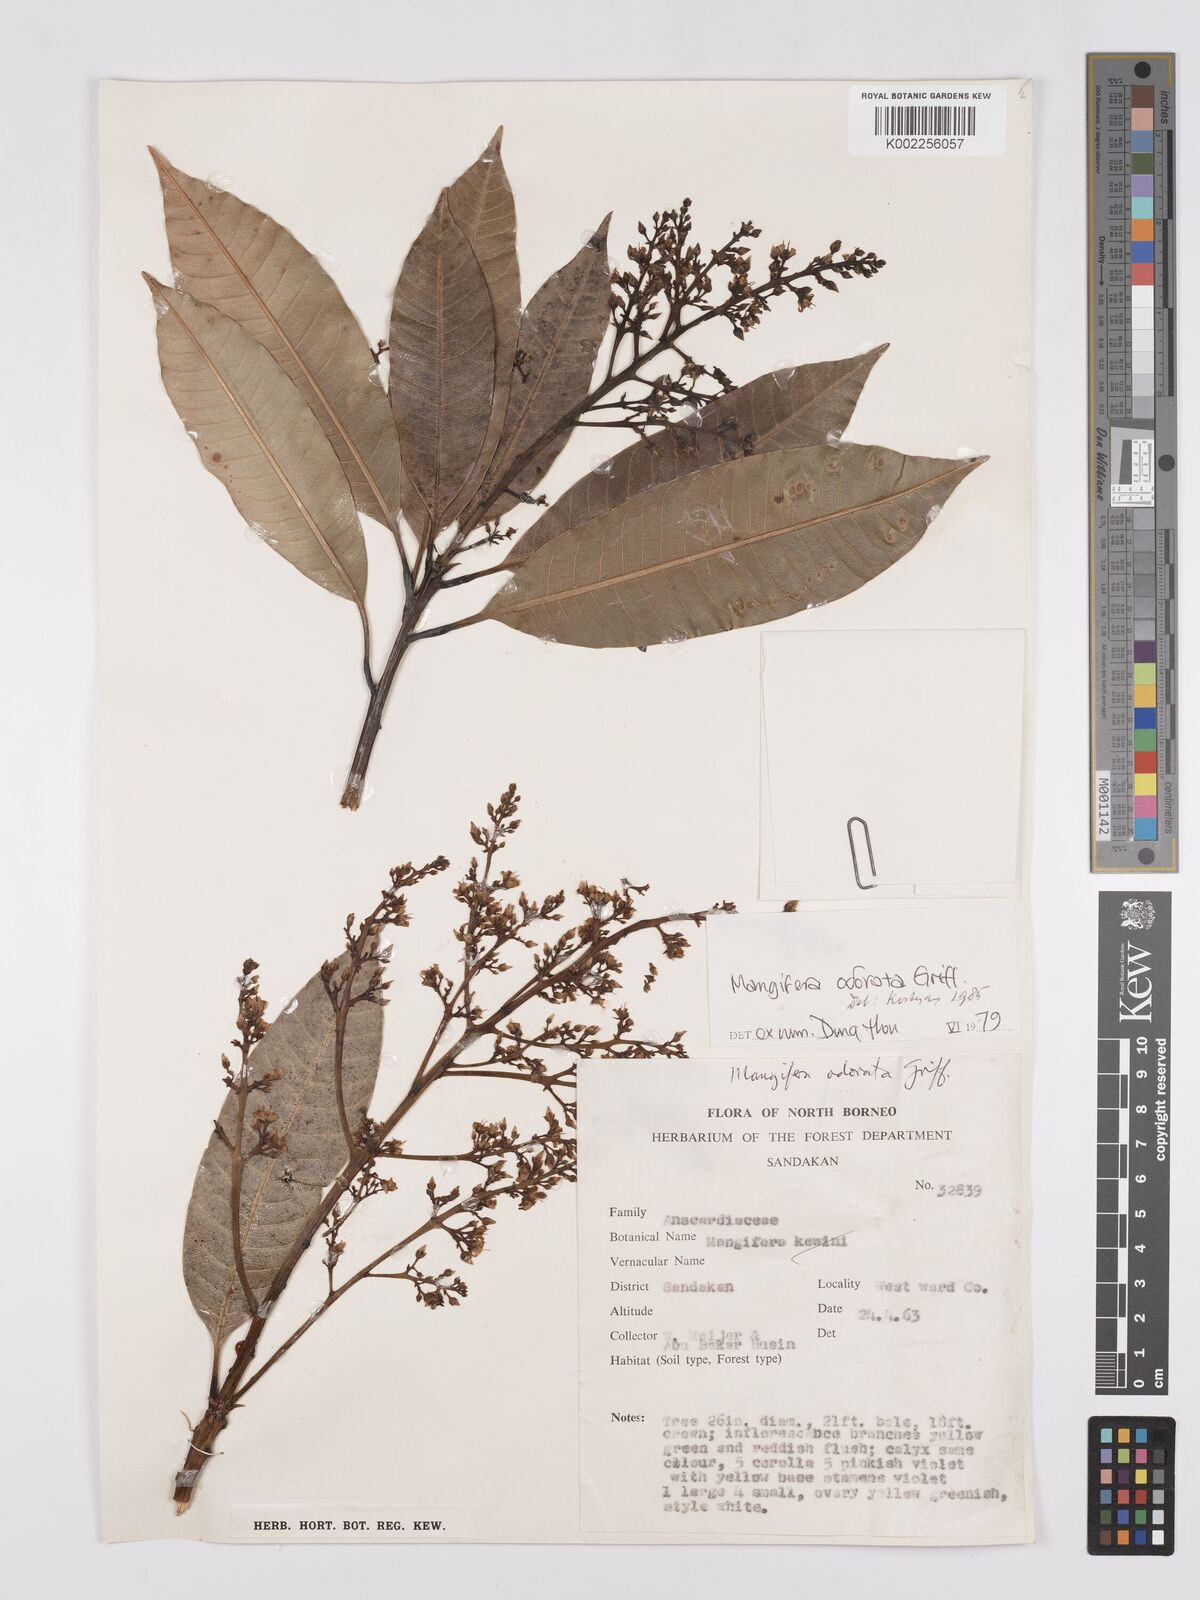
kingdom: Plantae
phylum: Tracheophyta
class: Magnoliopsida
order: Sapindales
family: Anacardiaceae
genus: Mangifera
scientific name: Mangifera odorata
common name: Saipan mango
